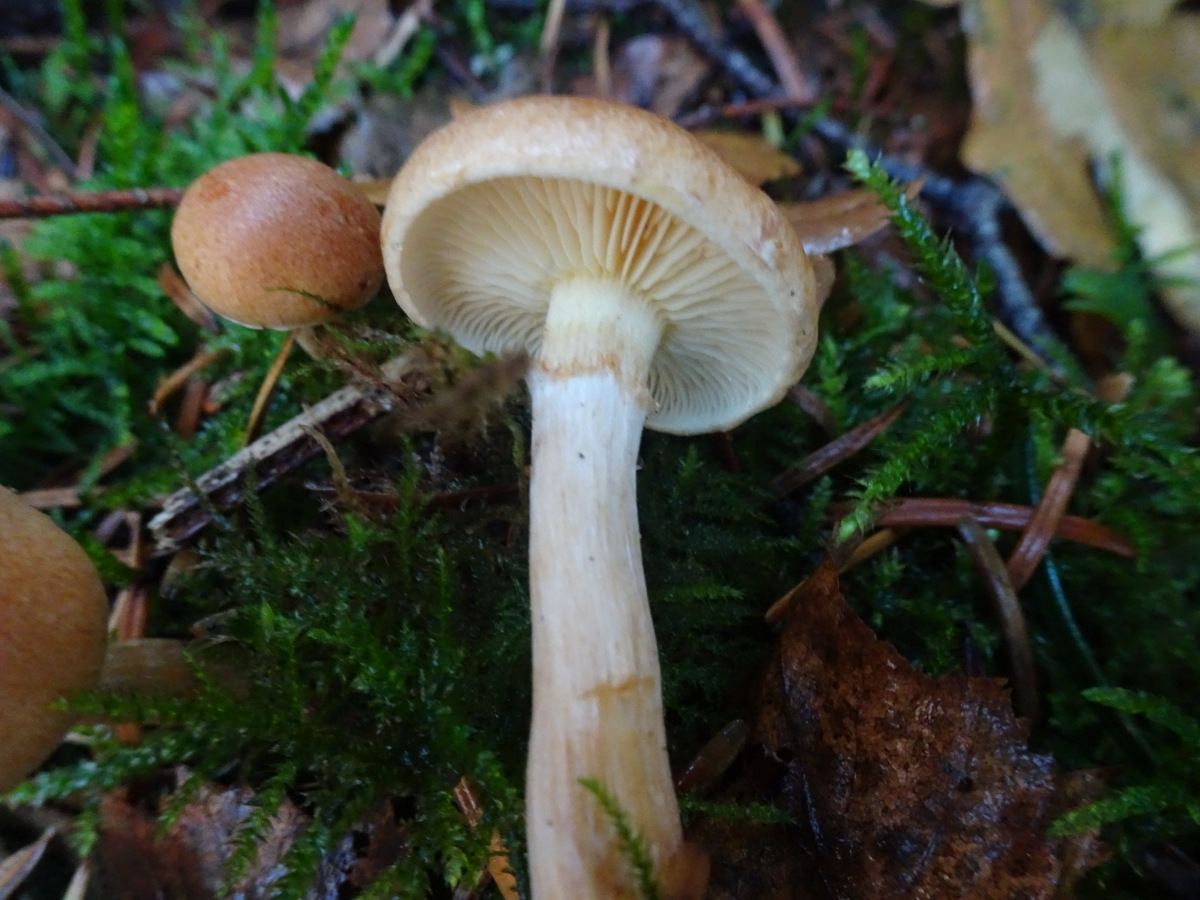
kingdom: Fungi
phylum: Basidiomycota
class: Agaricomycetes
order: Agaricales
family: Hymenogastraceae
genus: Gymnopilus
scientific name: Gymnopilus penetrans
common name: plettet flammehat
